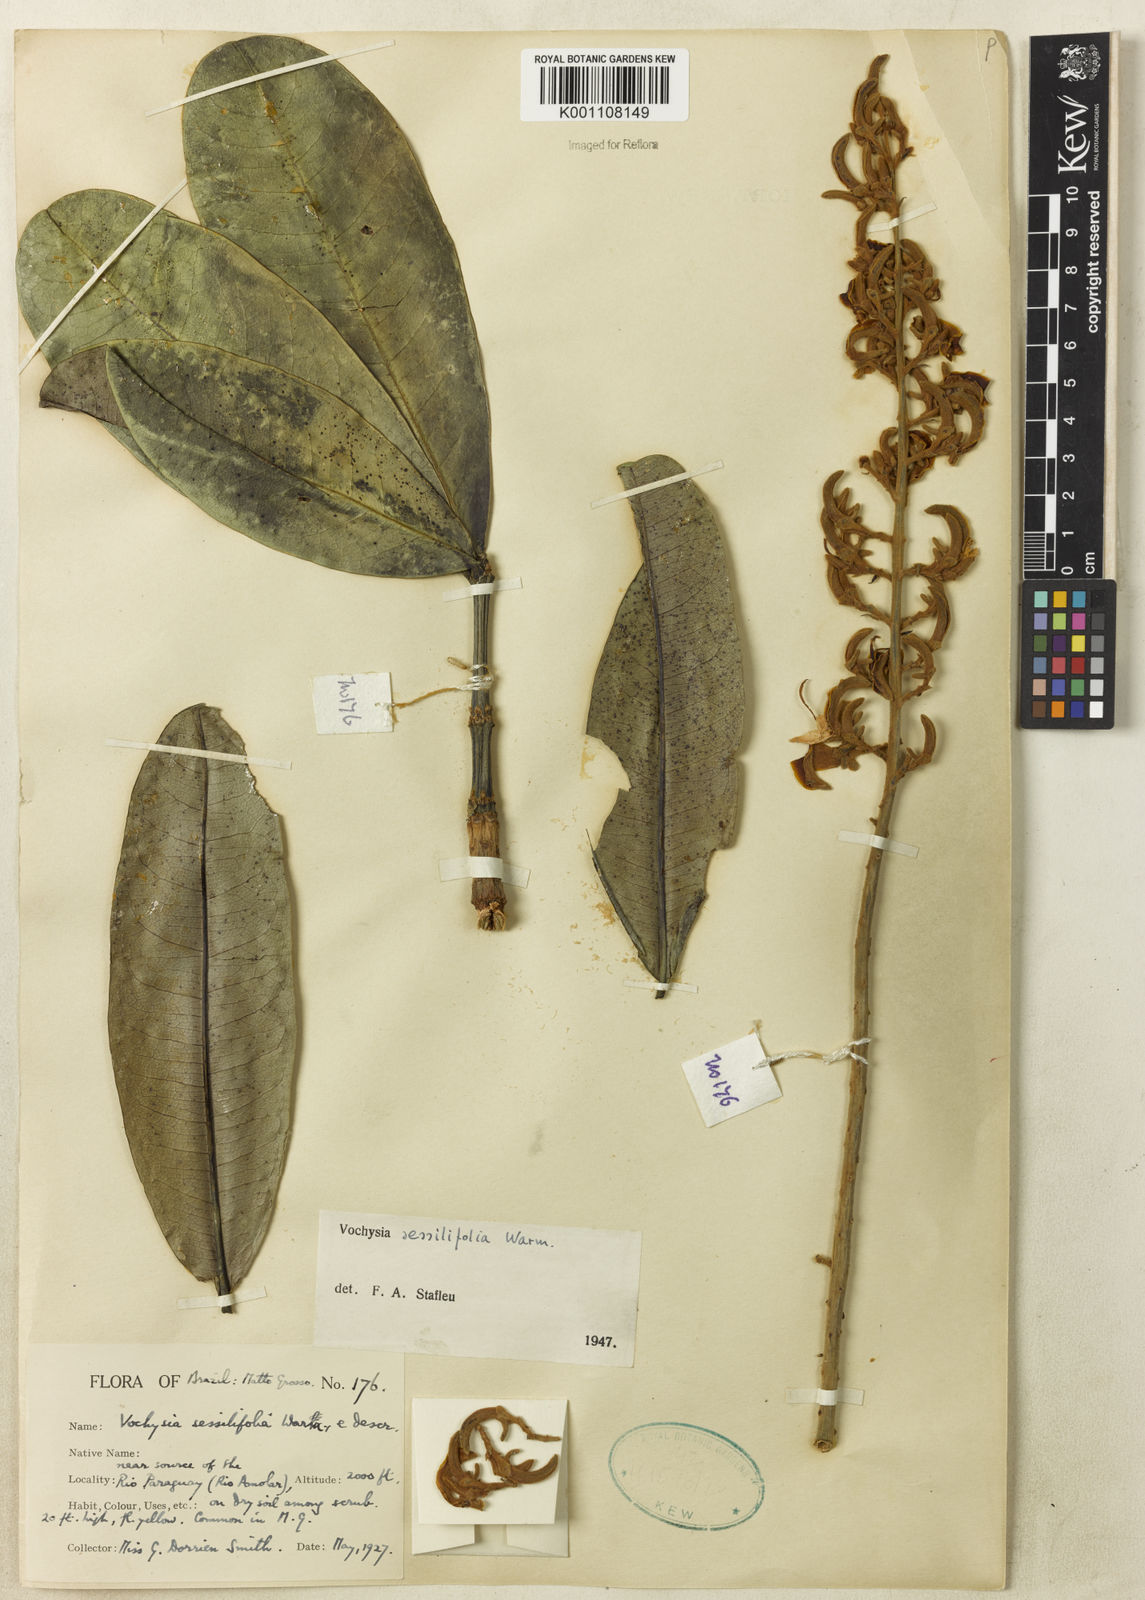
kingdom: Plantae
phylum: Tracheophyta
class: Magnoliopsida
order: Myrtales
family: Vochysiaceae
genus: Vochysia
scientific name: Vochysia sessilifolia
